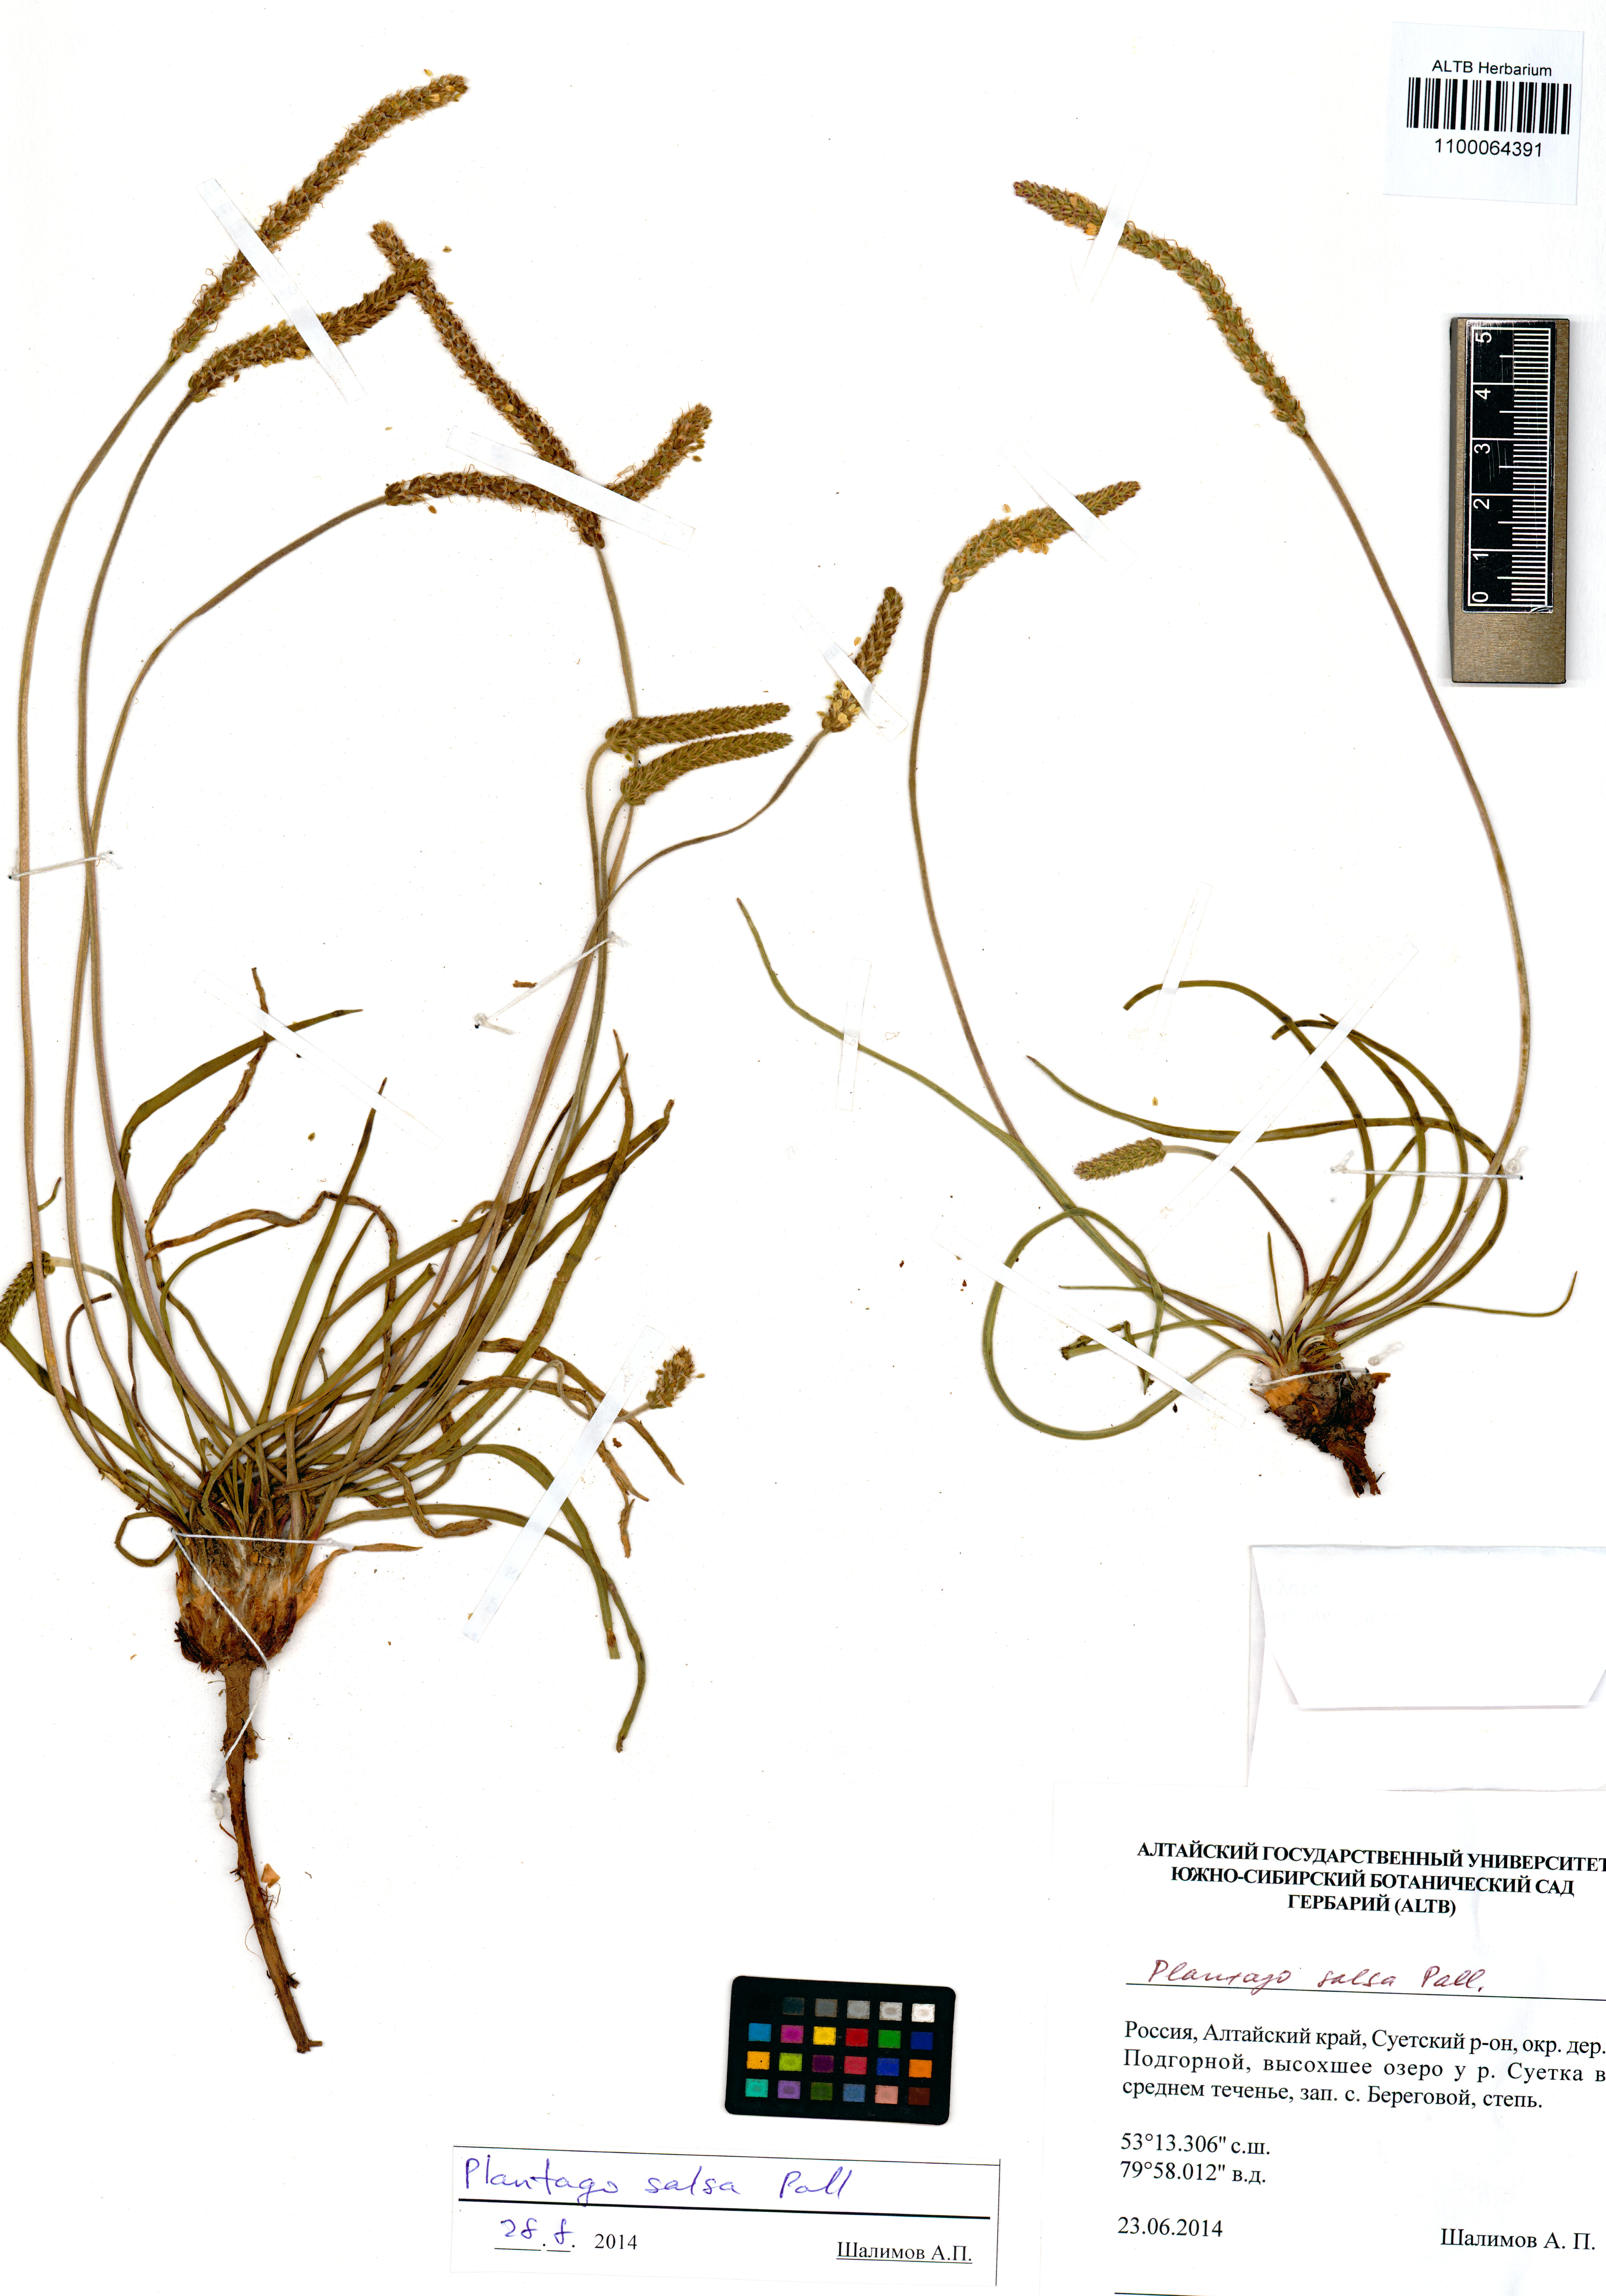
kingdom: Plantae
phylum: Tracheophyta
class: Magnoliopsida
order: Lamiales
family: Plantaginaceae
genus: Plantago
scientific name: Plantago salsa
